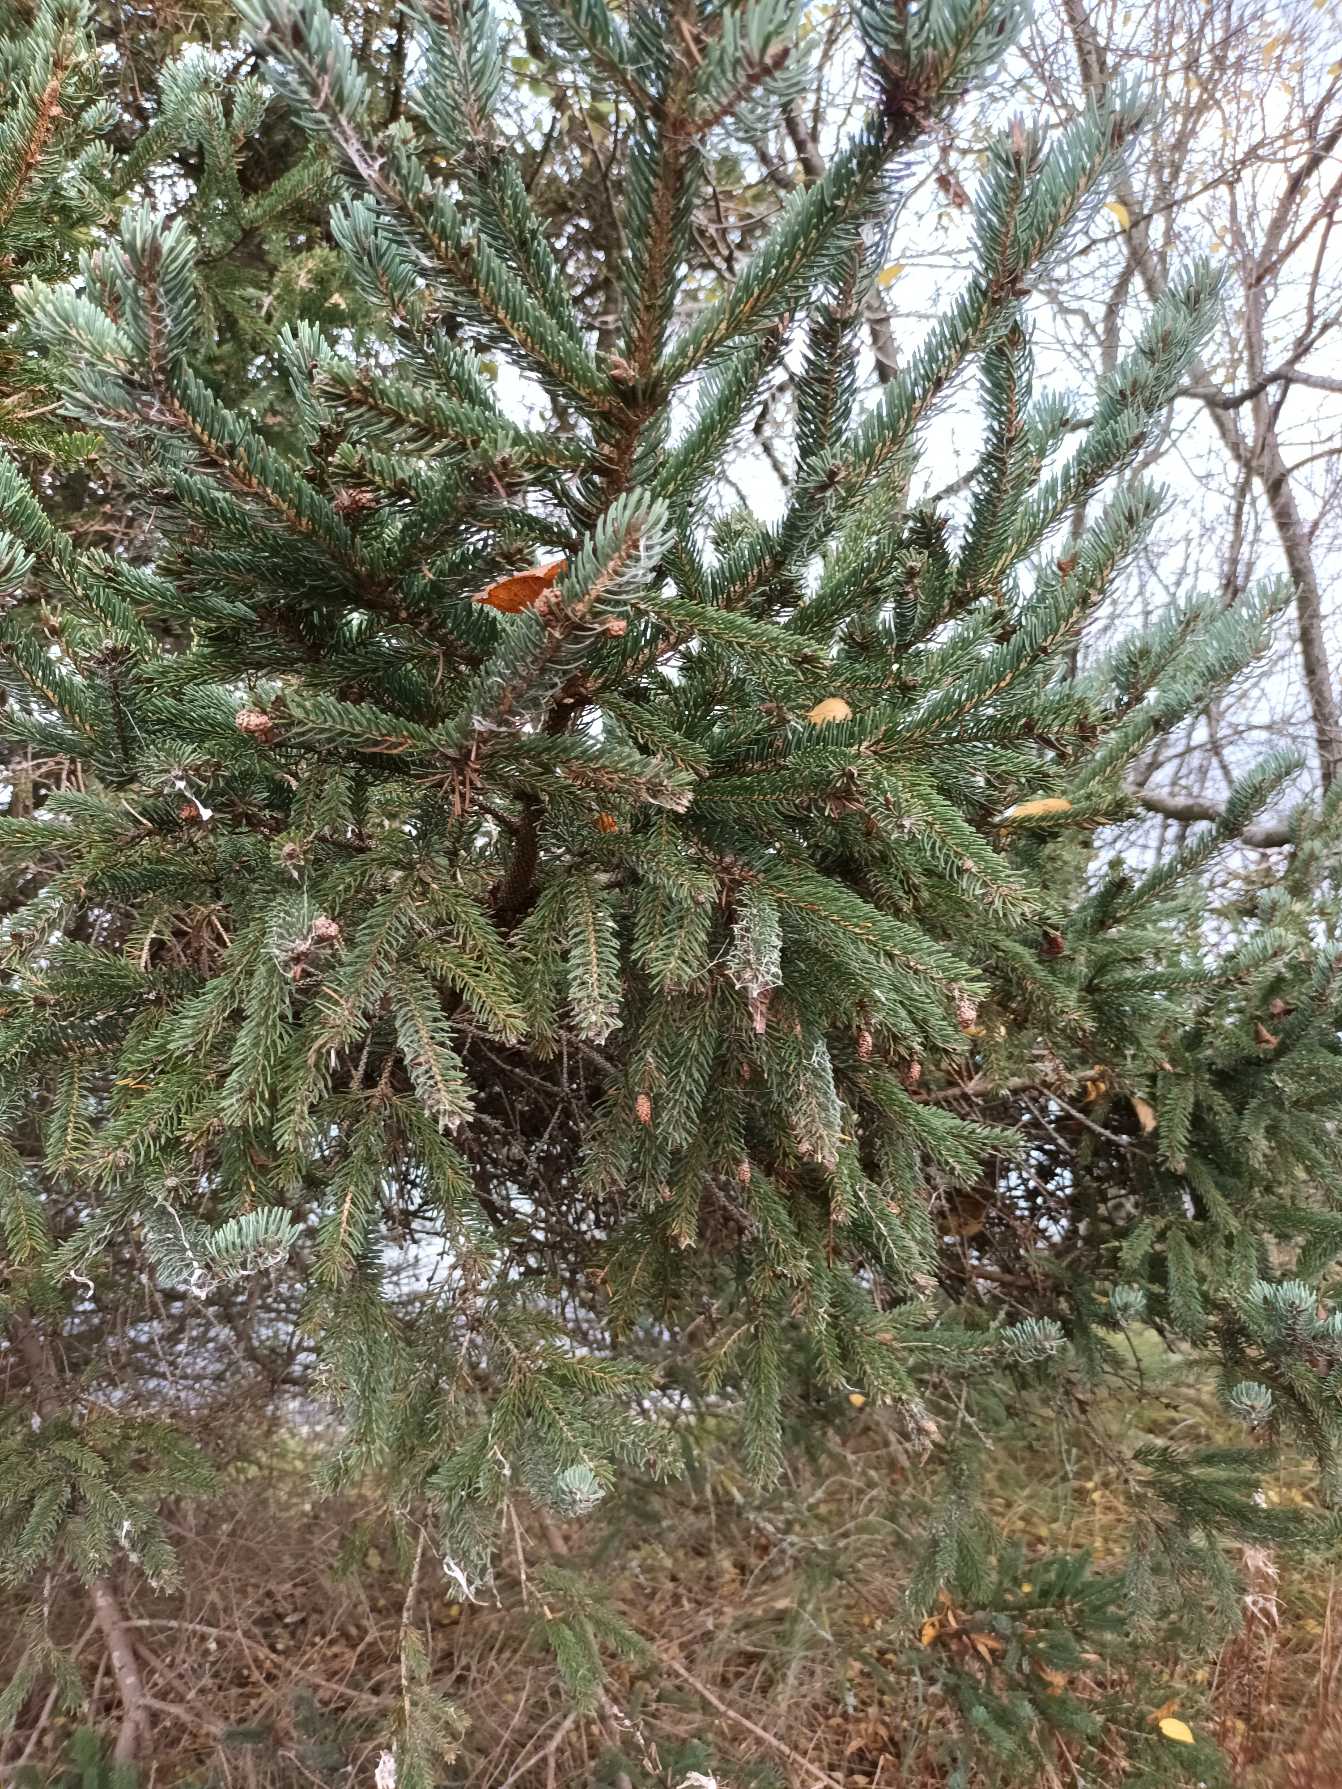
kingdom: Plantae
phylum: Tracheophyta
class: Pinopsida
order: Pinales
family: Pinaceae
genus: Picea
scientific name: Picea glauca
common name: Hvid-gran
